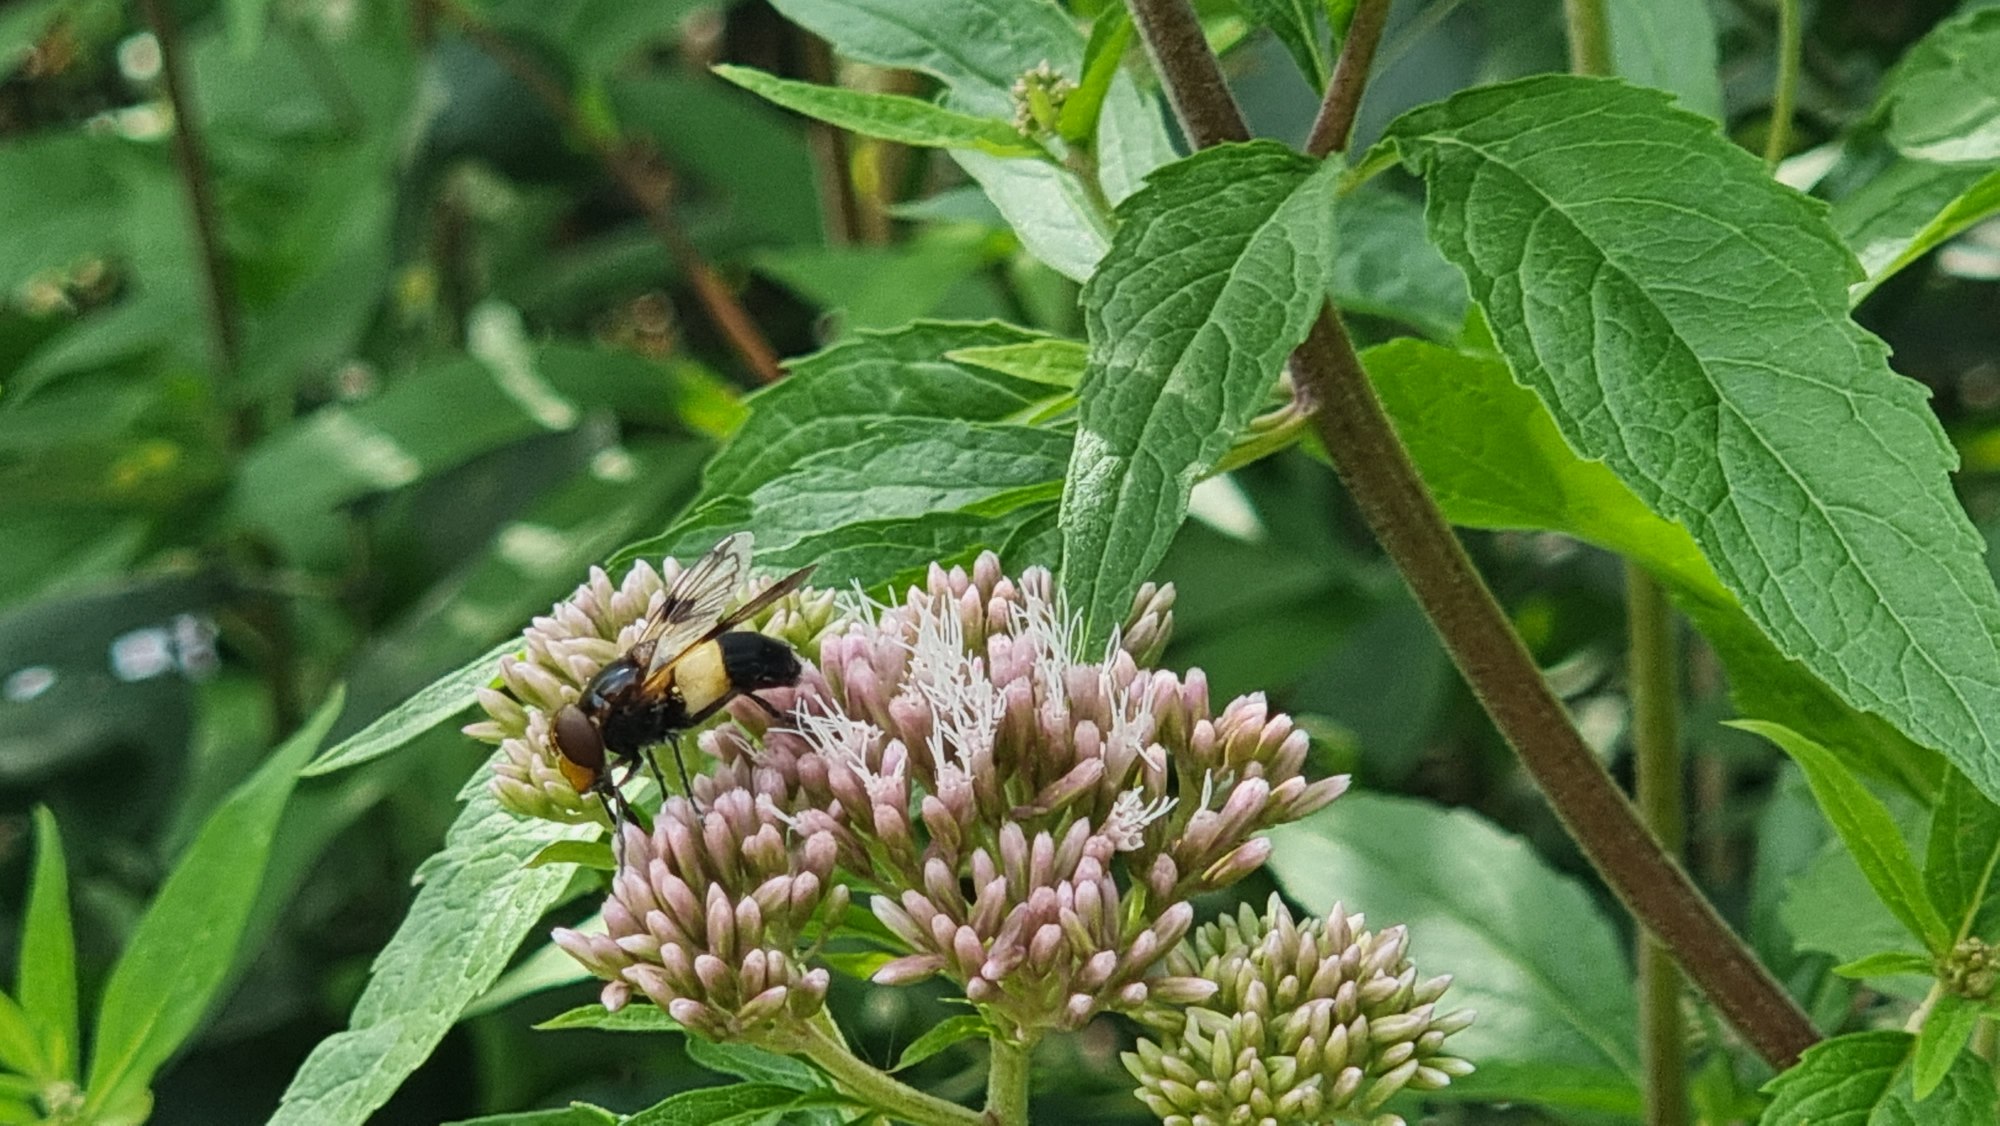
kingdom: Animalia
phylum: Arthropoda
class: Insecta
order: Diptera
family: Syrphidae
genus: Volucella
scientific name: Volucella pellucens
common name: Hvidbåndet humlesvirreflue
